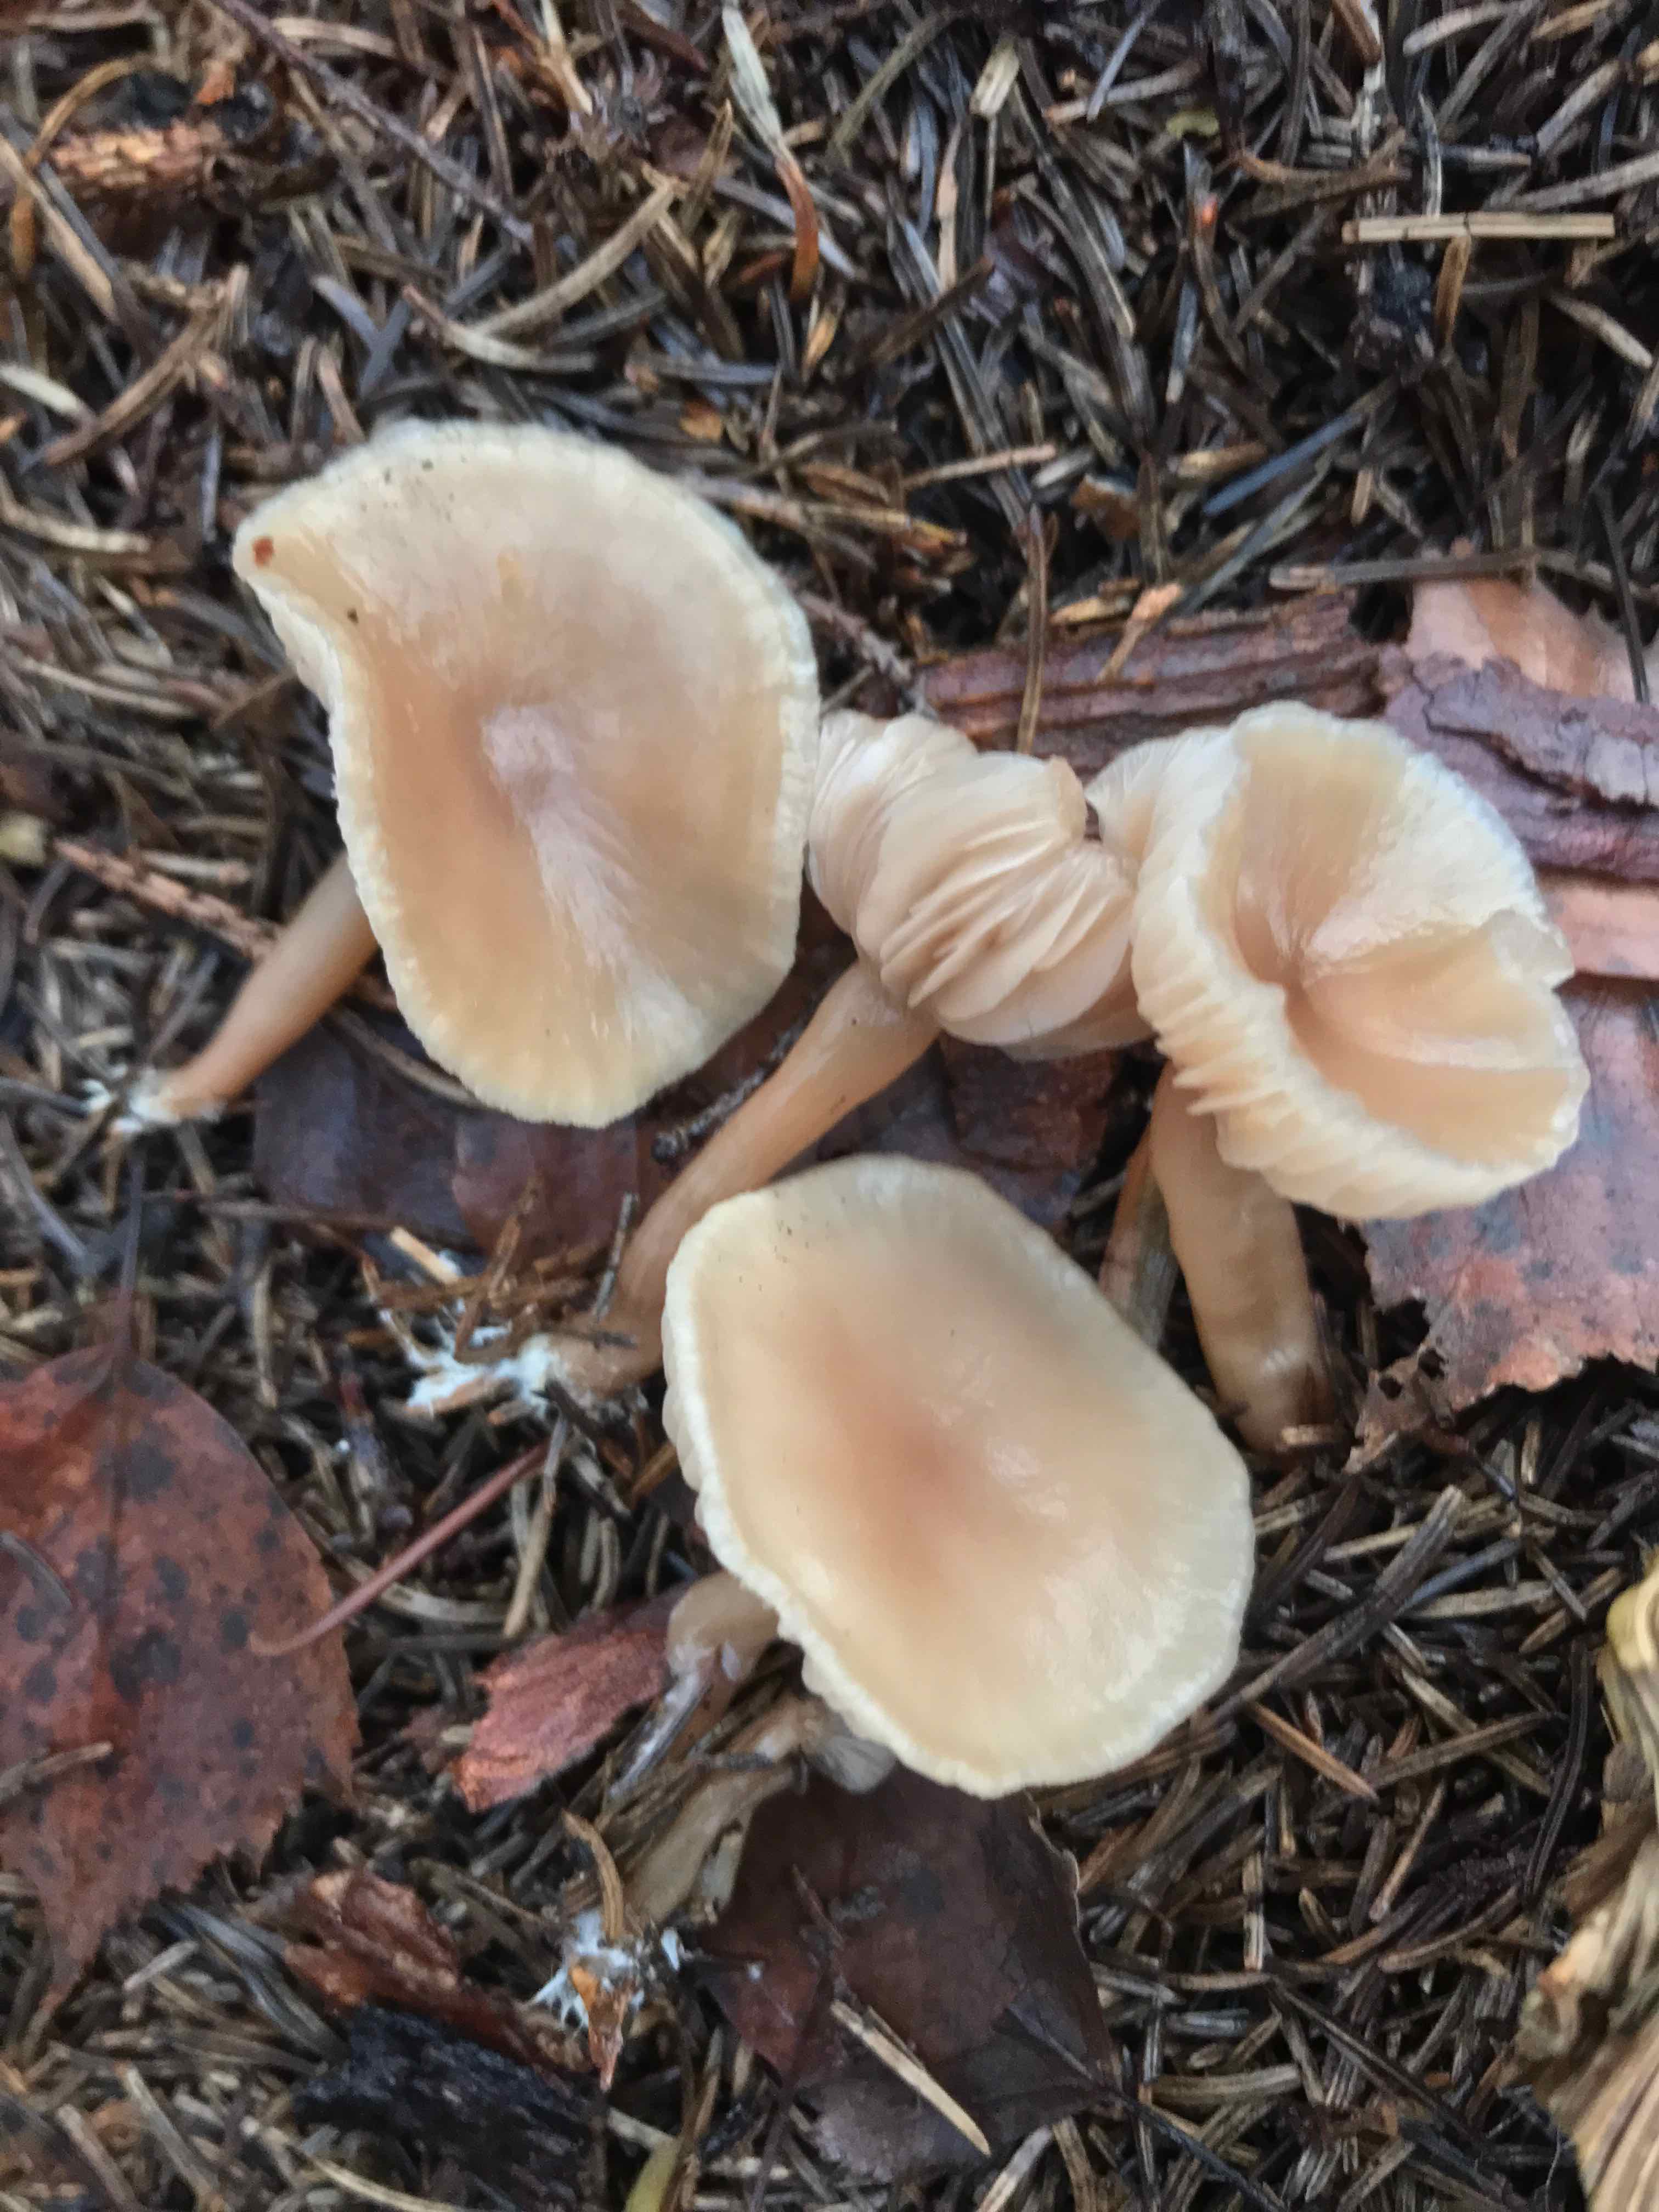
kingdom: Fungi
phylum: Basidiomycota
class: Agaricomycetes
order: Agaricales
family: Omphalotaceae
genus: Rhodocollybia
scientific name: Rhodocollybia asema
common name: horngrå fladhat
